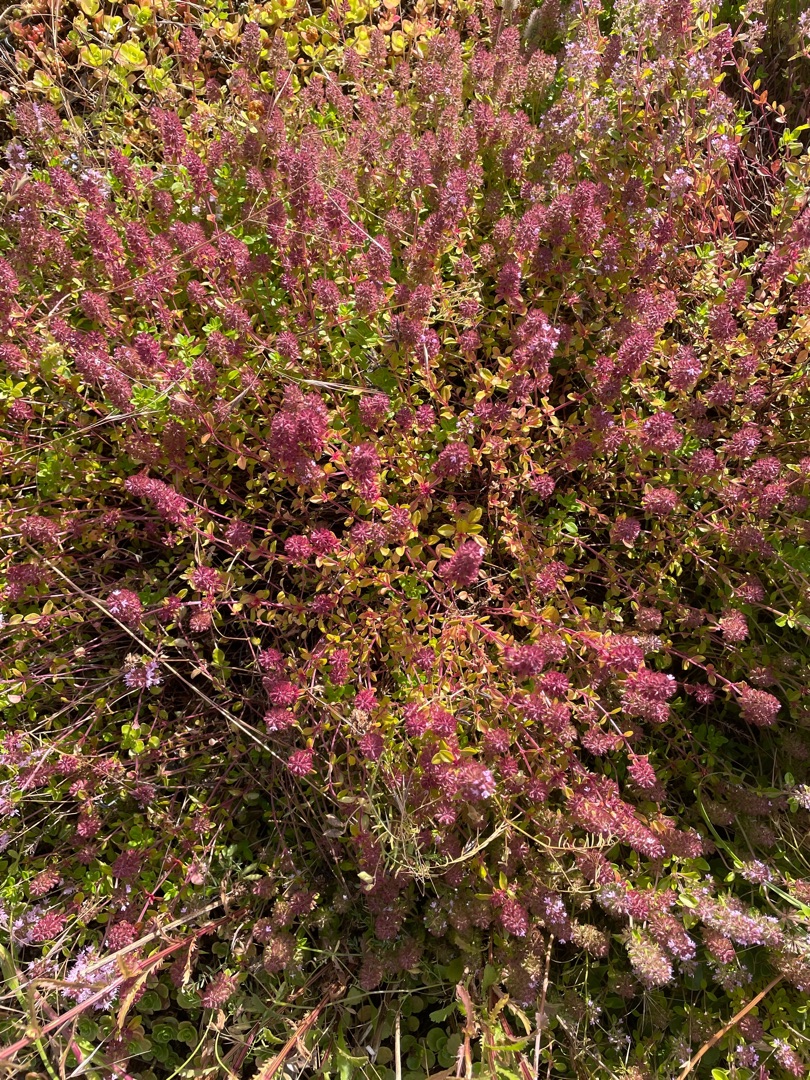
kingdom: Plantae
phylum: Tracheophyta
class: Magnoliopsida
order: Lamiales
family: Lamiaceae
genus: Thymus
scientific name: Thymus pulegioides
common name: Bredbladet timian
